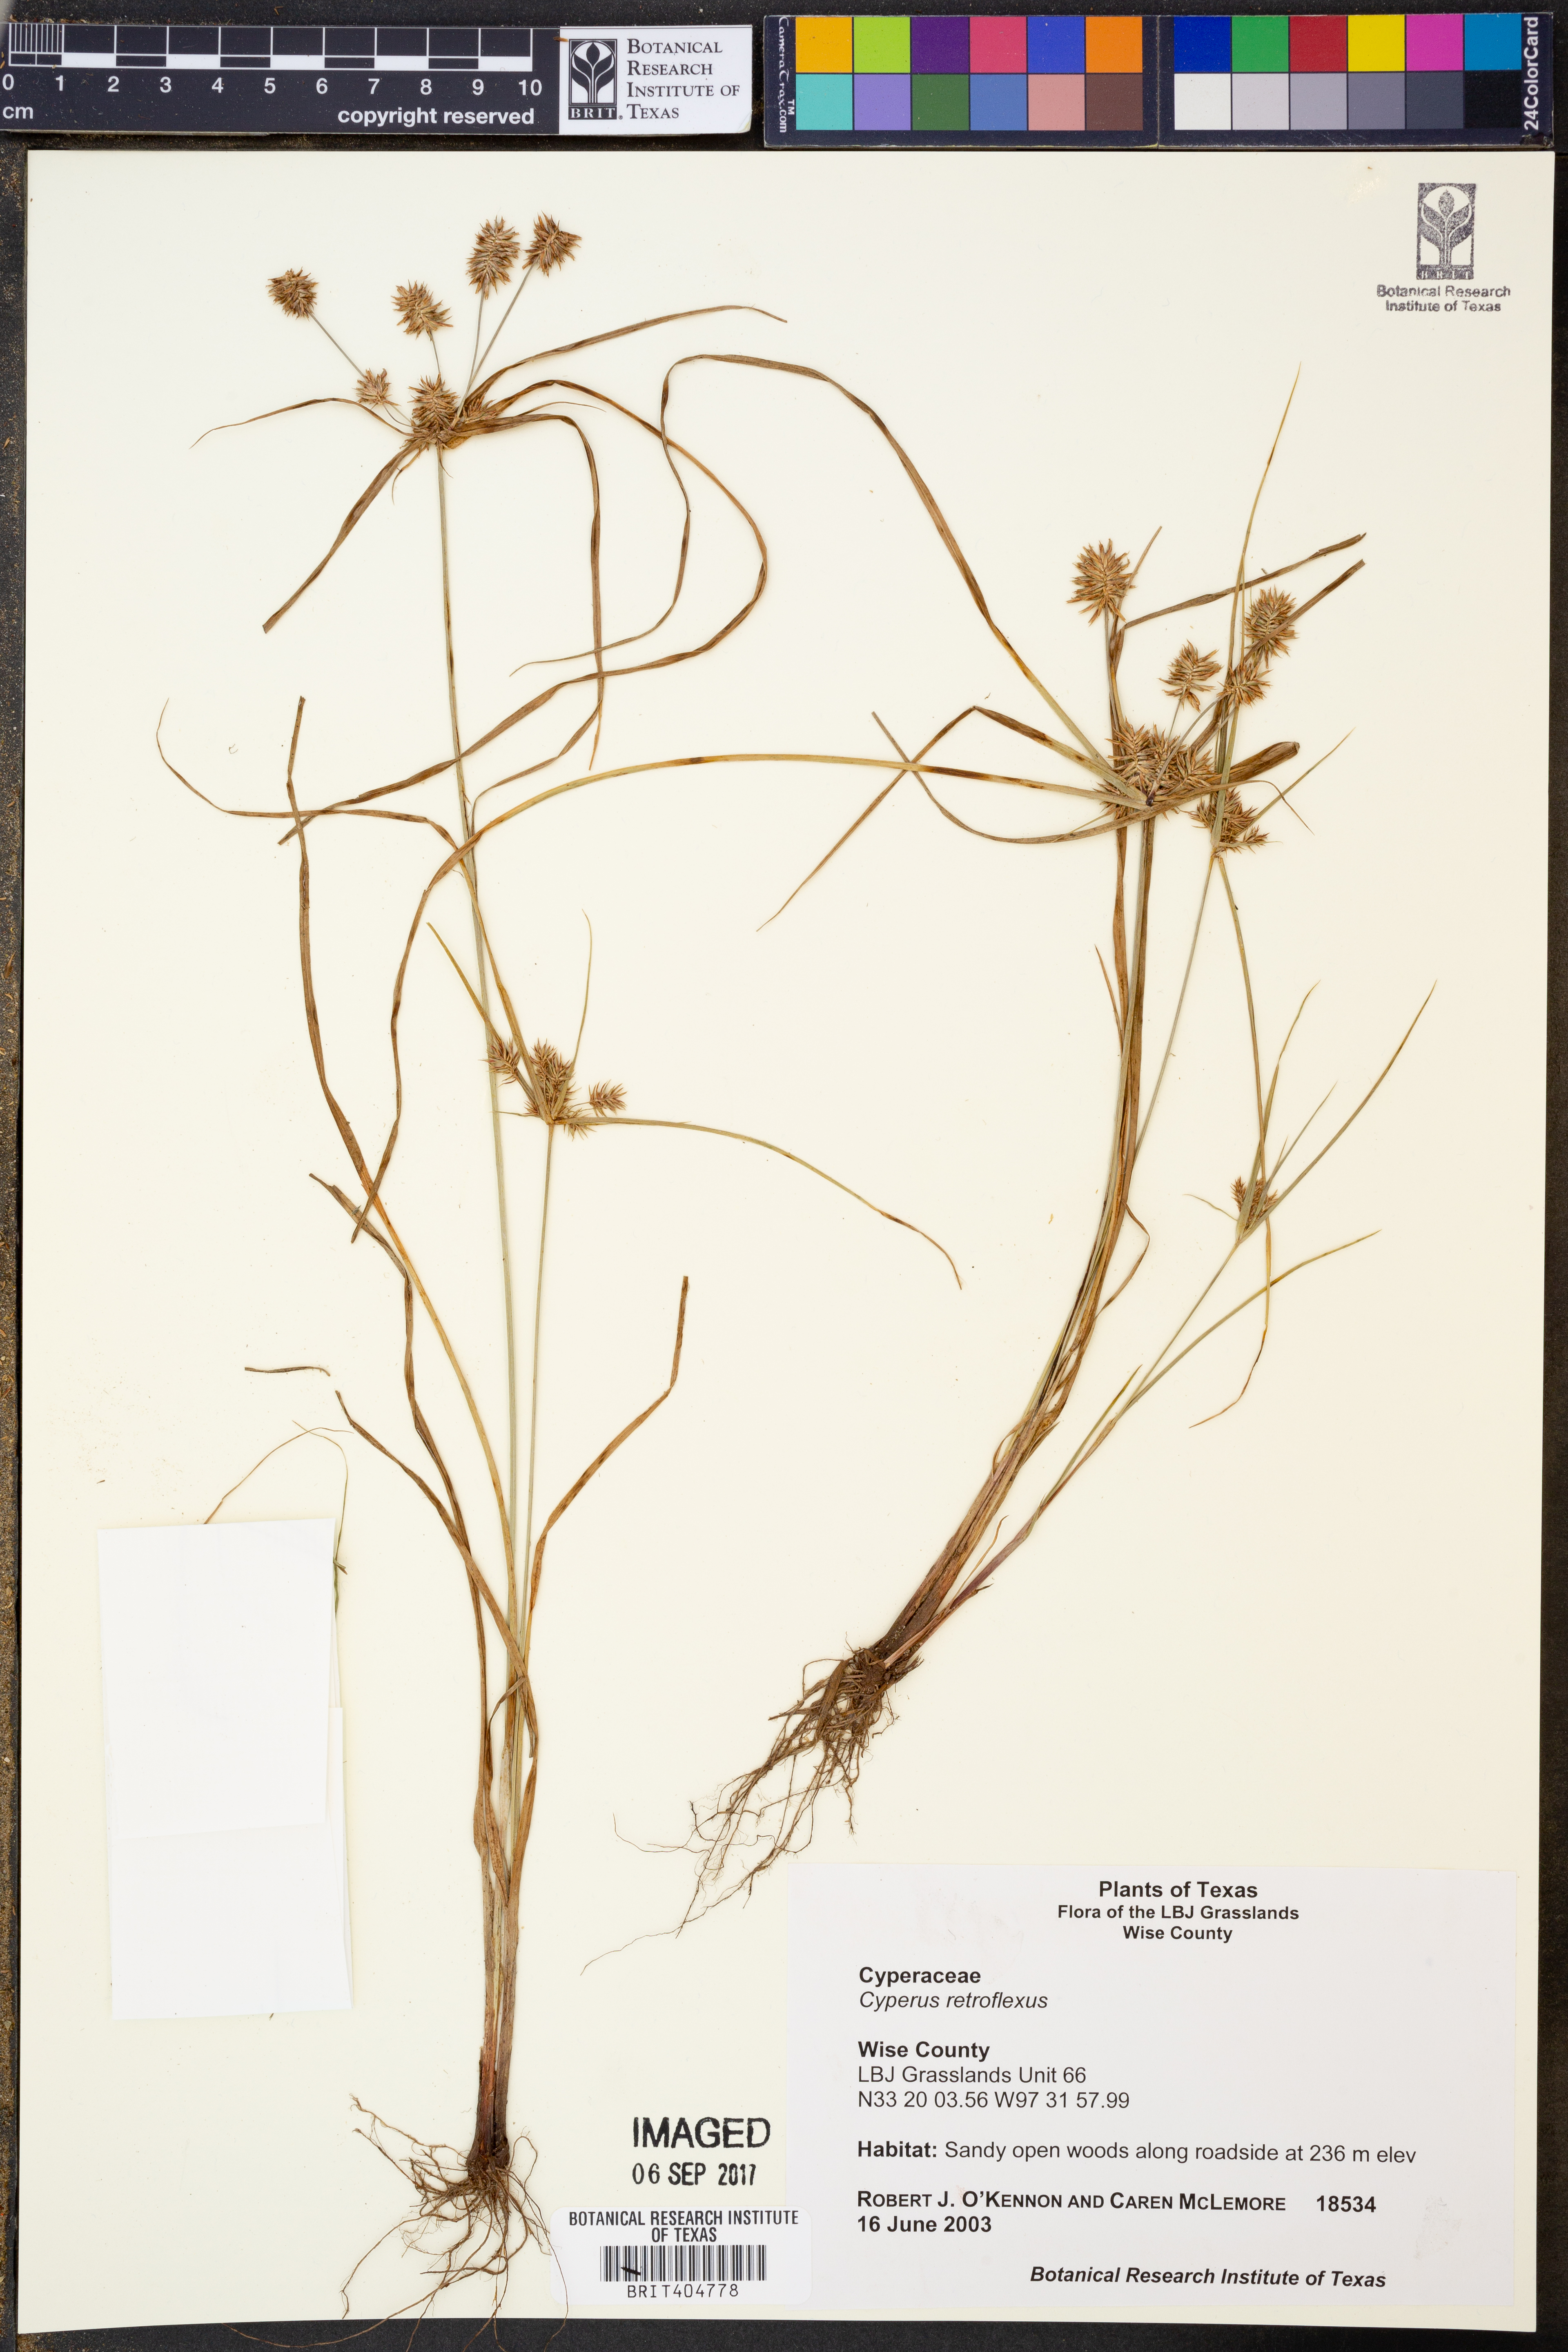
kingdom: Plantae
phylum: Tracheophyta
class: Liliopsida
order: Poales
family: Cyperaceae
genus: Cyperus
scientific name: Cyperus retroflexus
